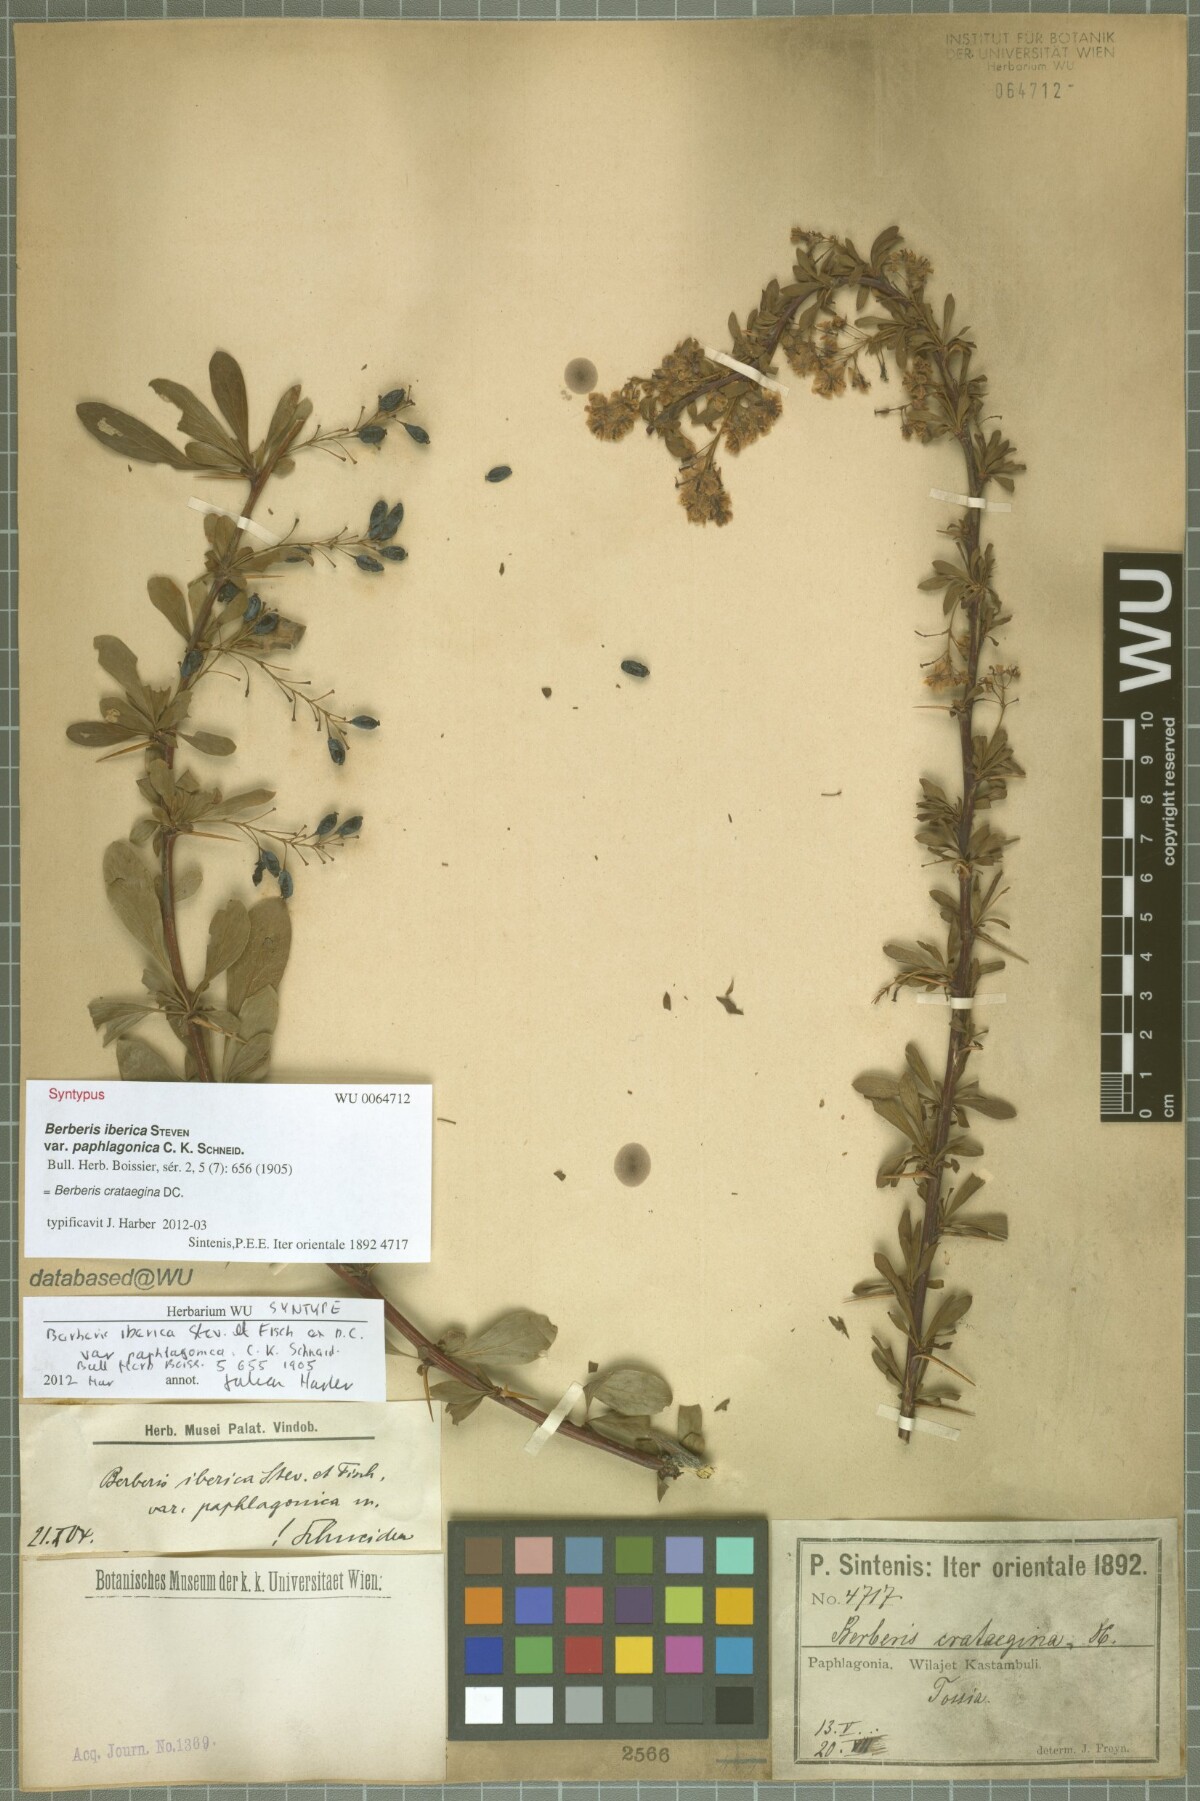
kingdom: Plantae
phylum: Tracheophyta
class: Magnoliopsida
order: Ranunculales
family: Berberidaceae
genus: Berberis
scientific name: Berberis crataegina
